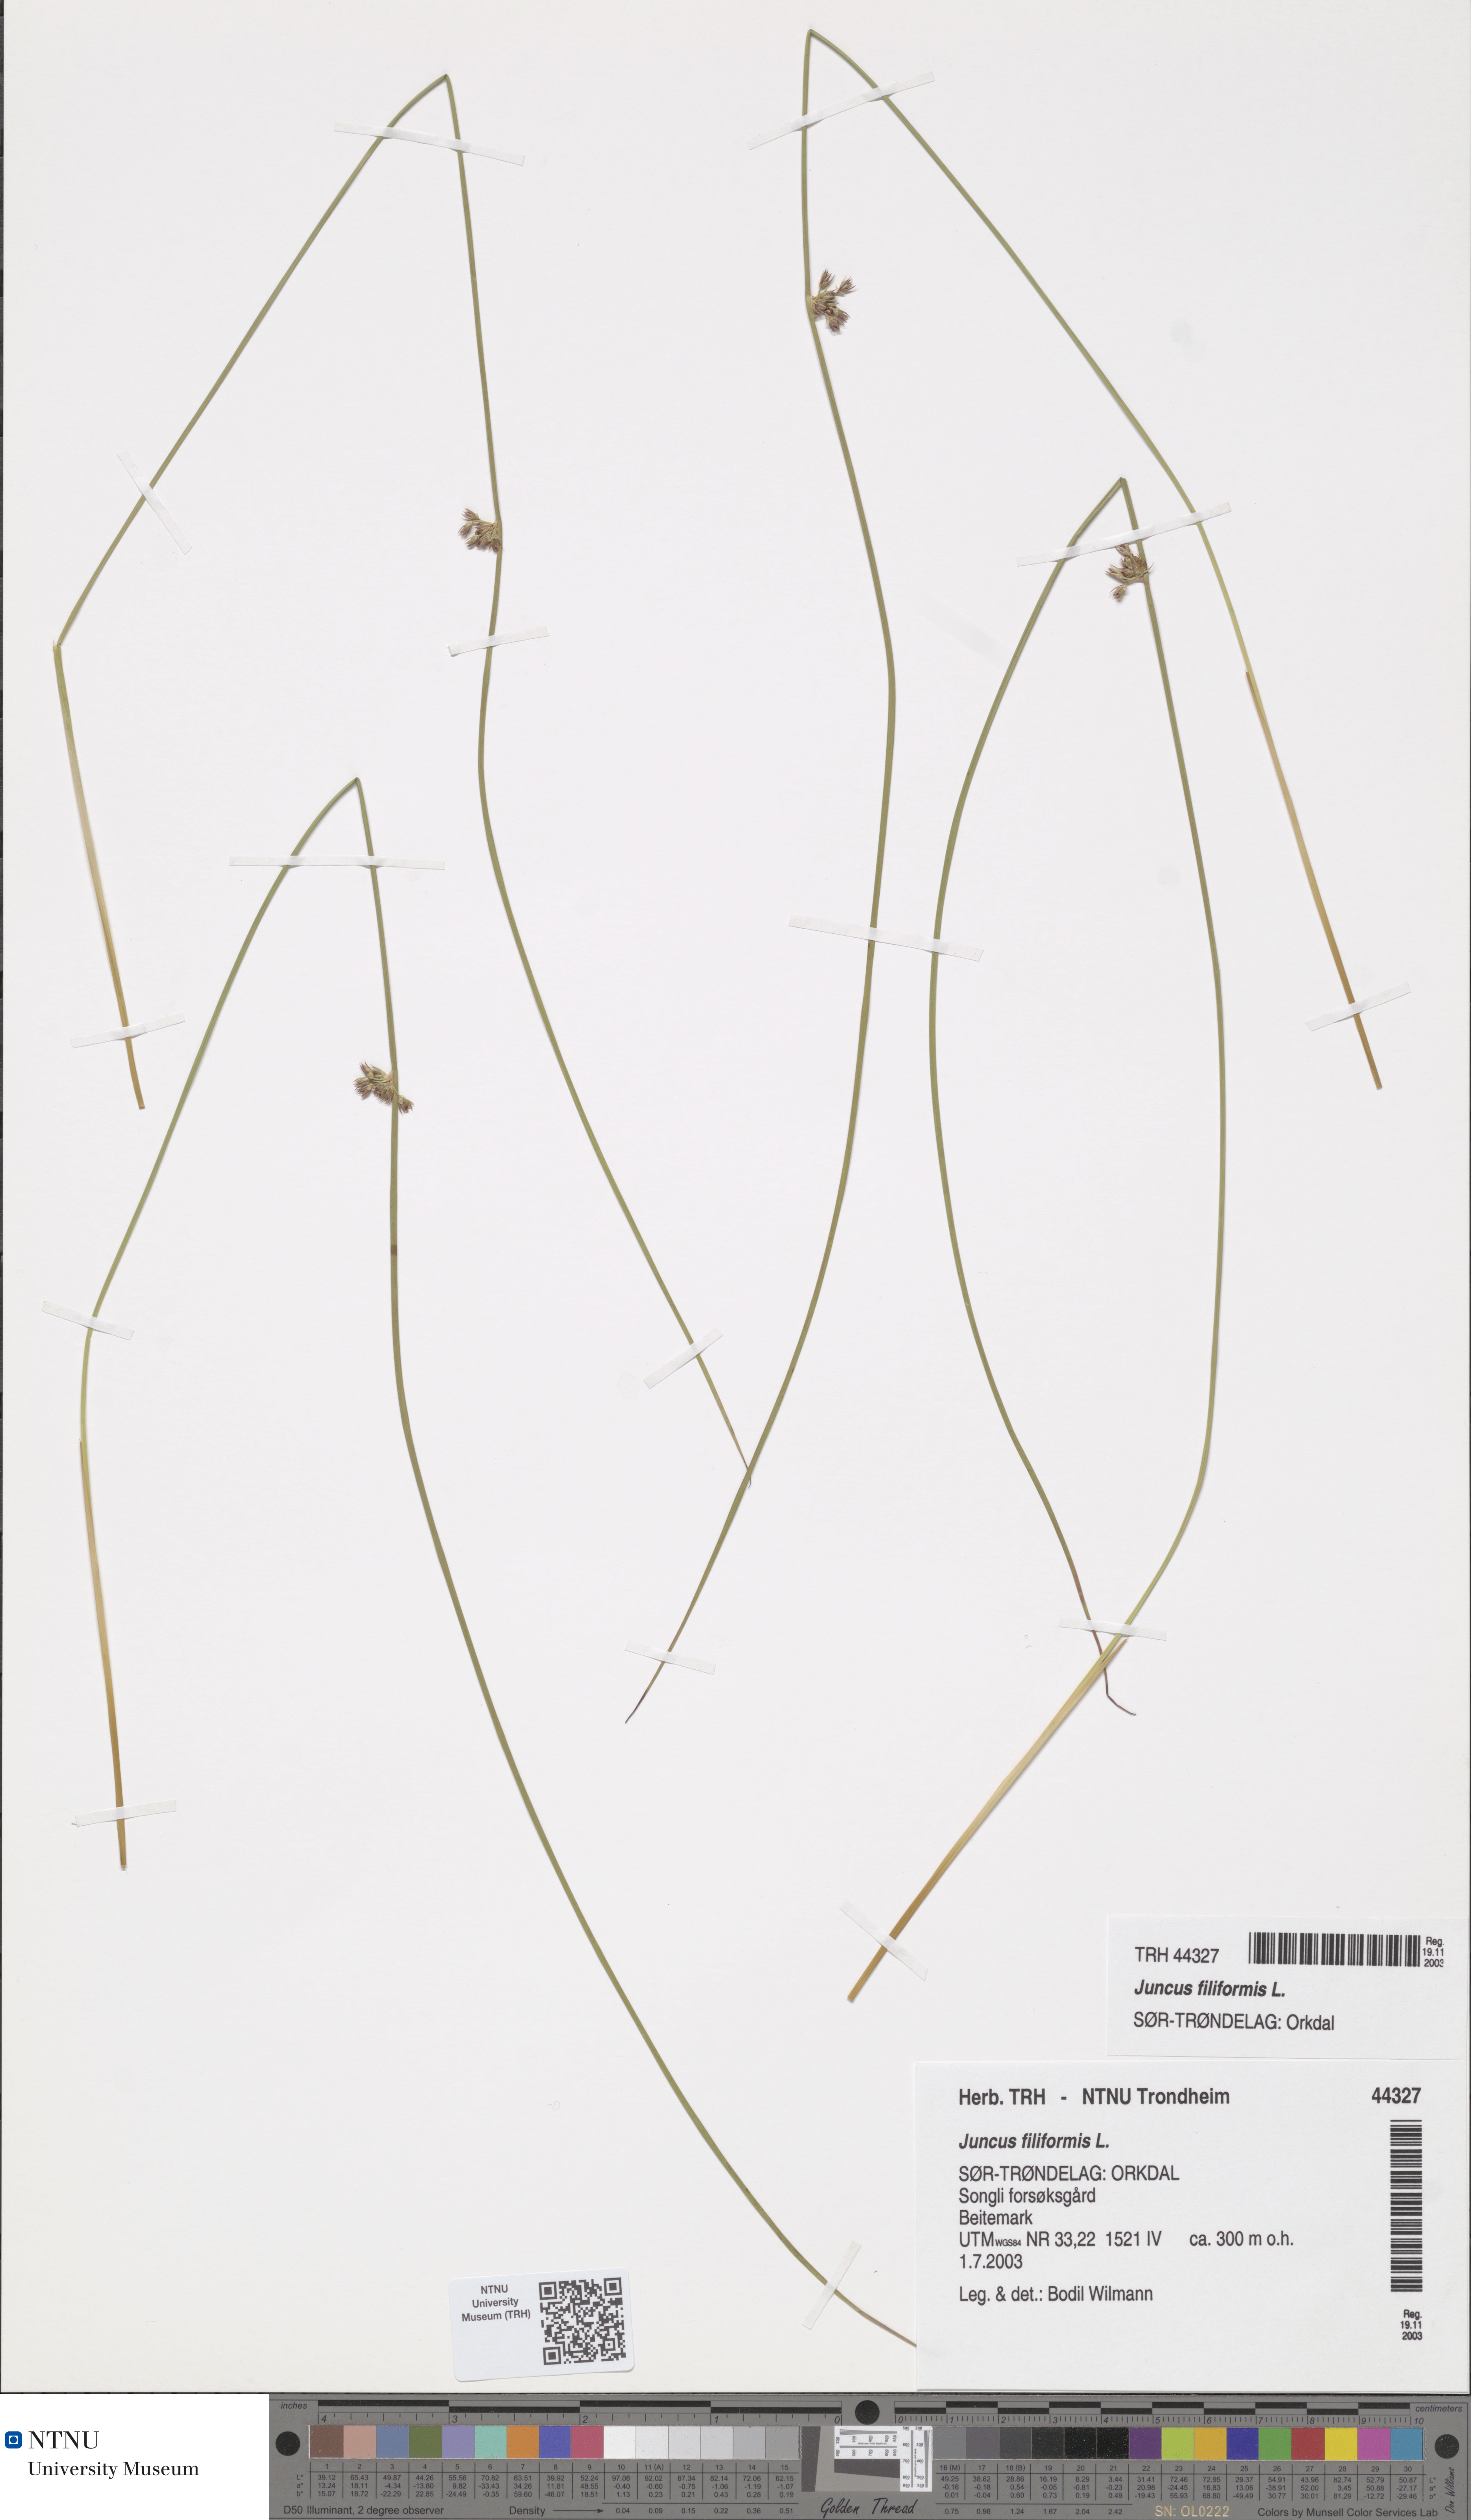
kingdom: Plantae
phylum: Tracheophyta
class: Liliopsida
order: Poales
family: Juncaceae
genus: Juncus
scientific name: Juncus filiformis
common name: Thread rush
